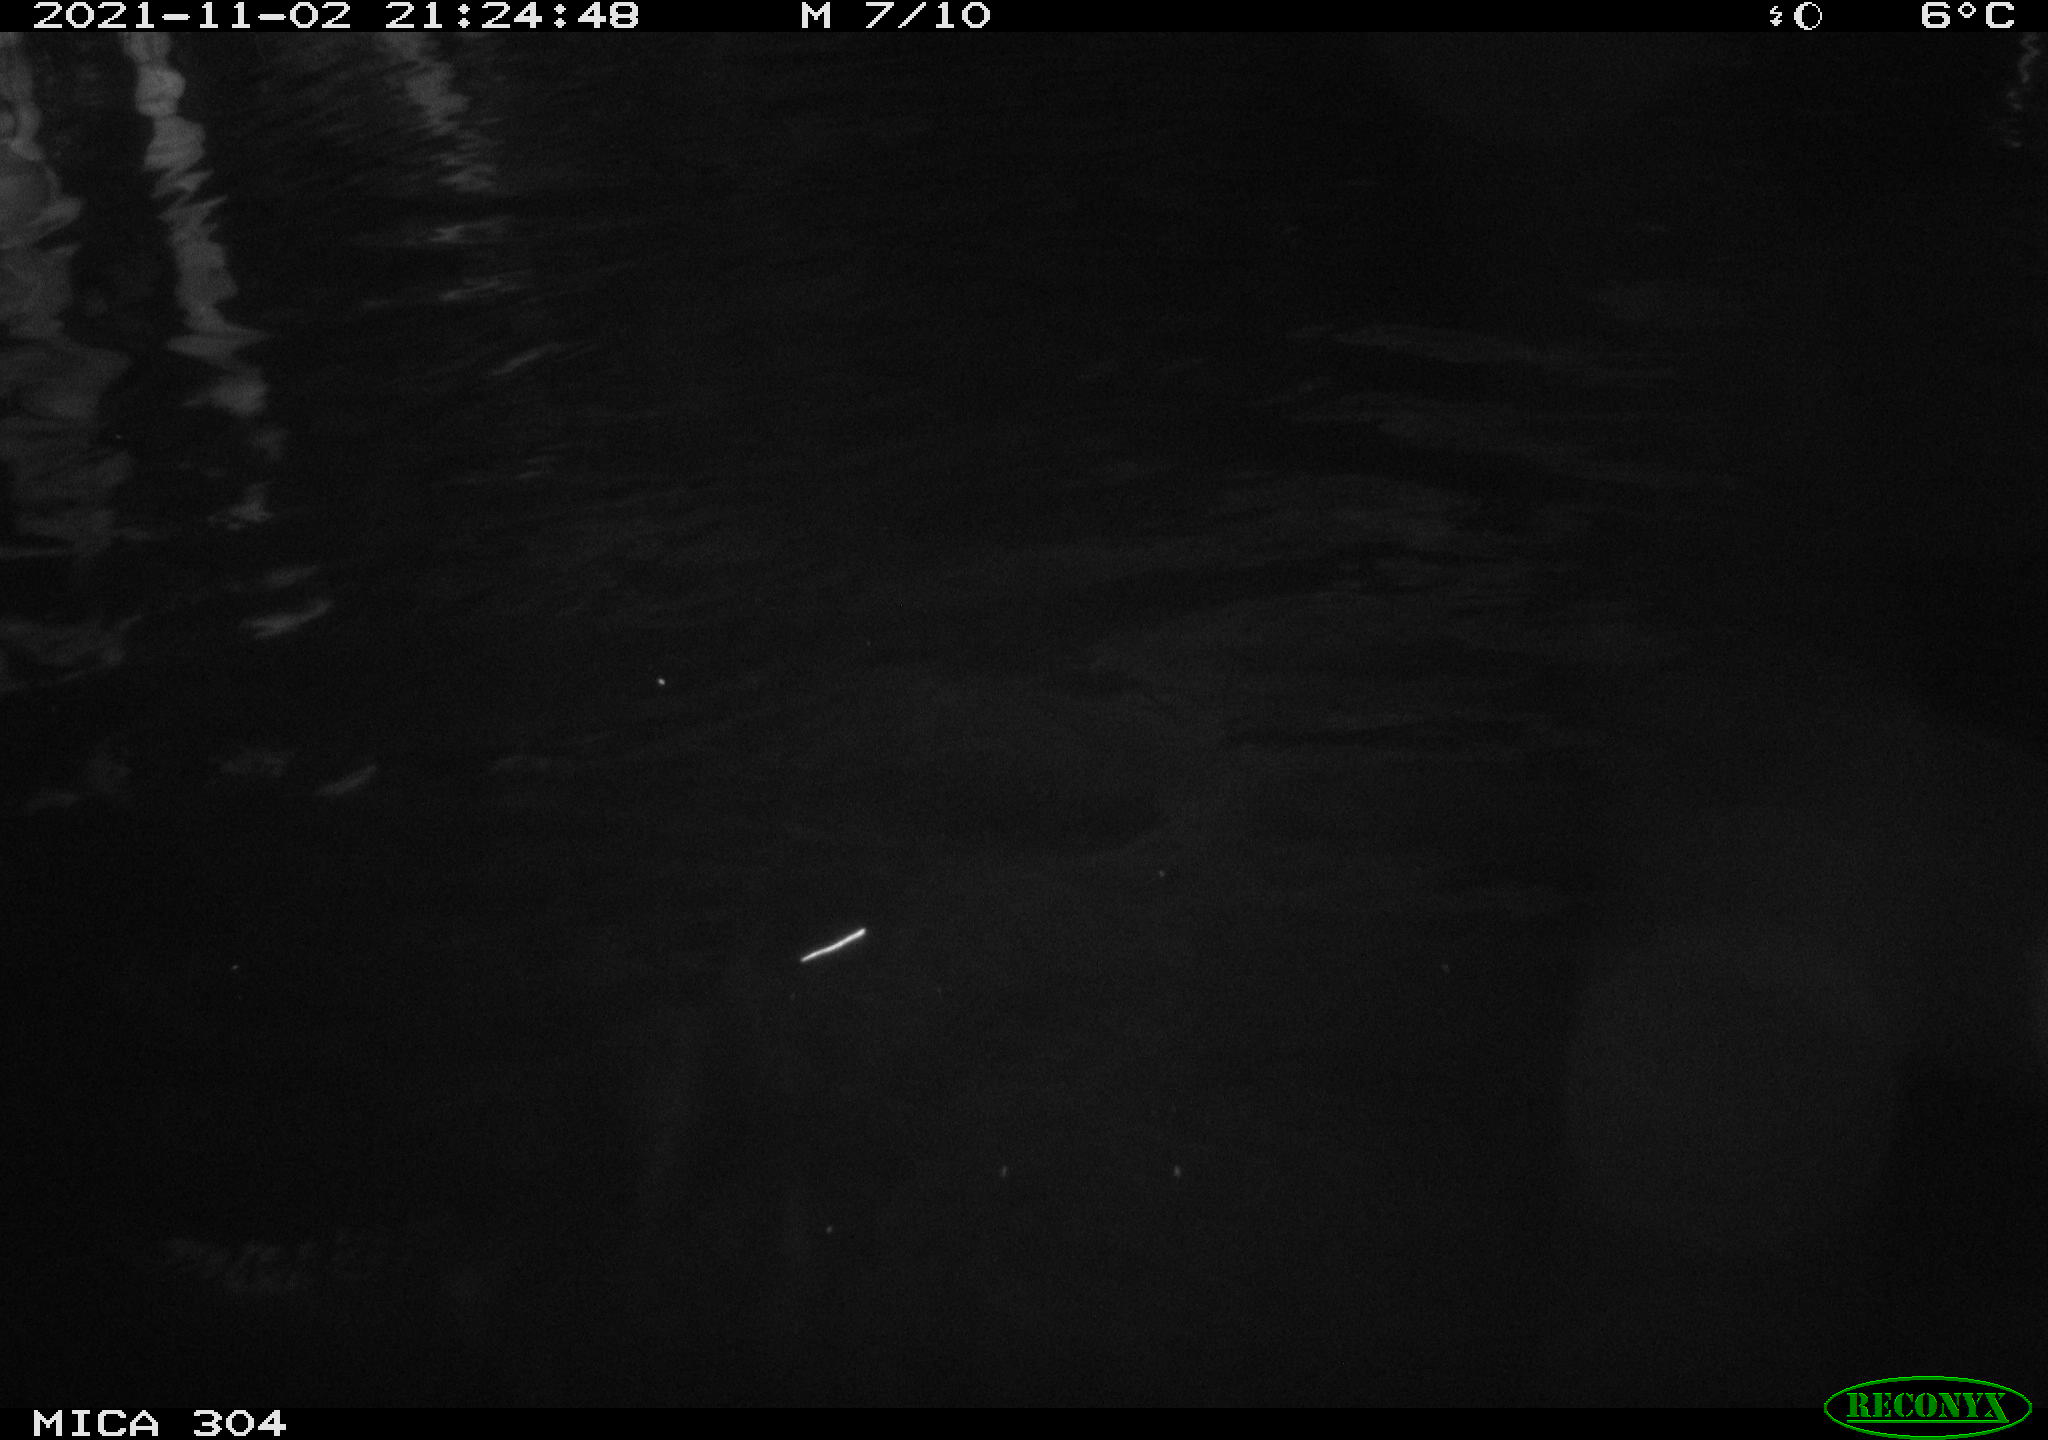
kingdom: Animalia
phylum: Chordata
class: Mammalia
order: Rodentia
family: Cricetidae
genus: Ondatra
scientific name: Ondatra zibethicus
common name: Muskrat
